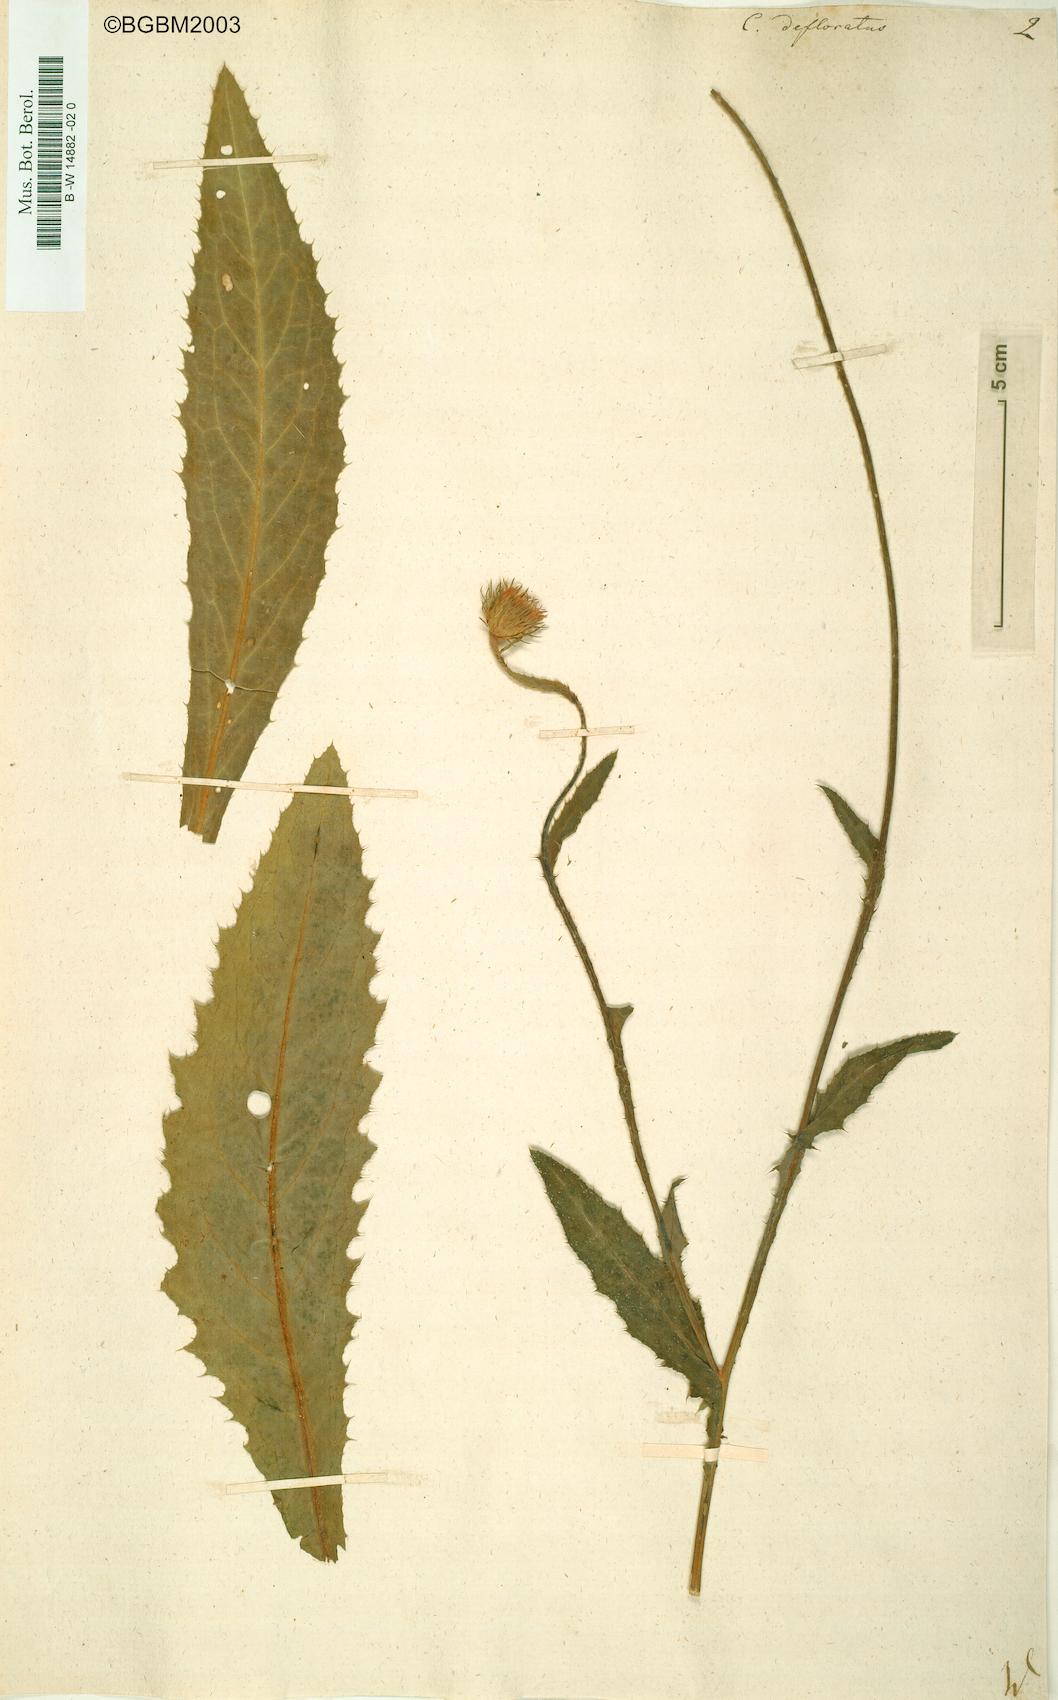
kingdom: Plantae
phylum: Tracheophyta
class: Magnoliopsida
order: Asterales
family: Asteraceae
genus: Carduus
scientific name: Carduus defloratus
